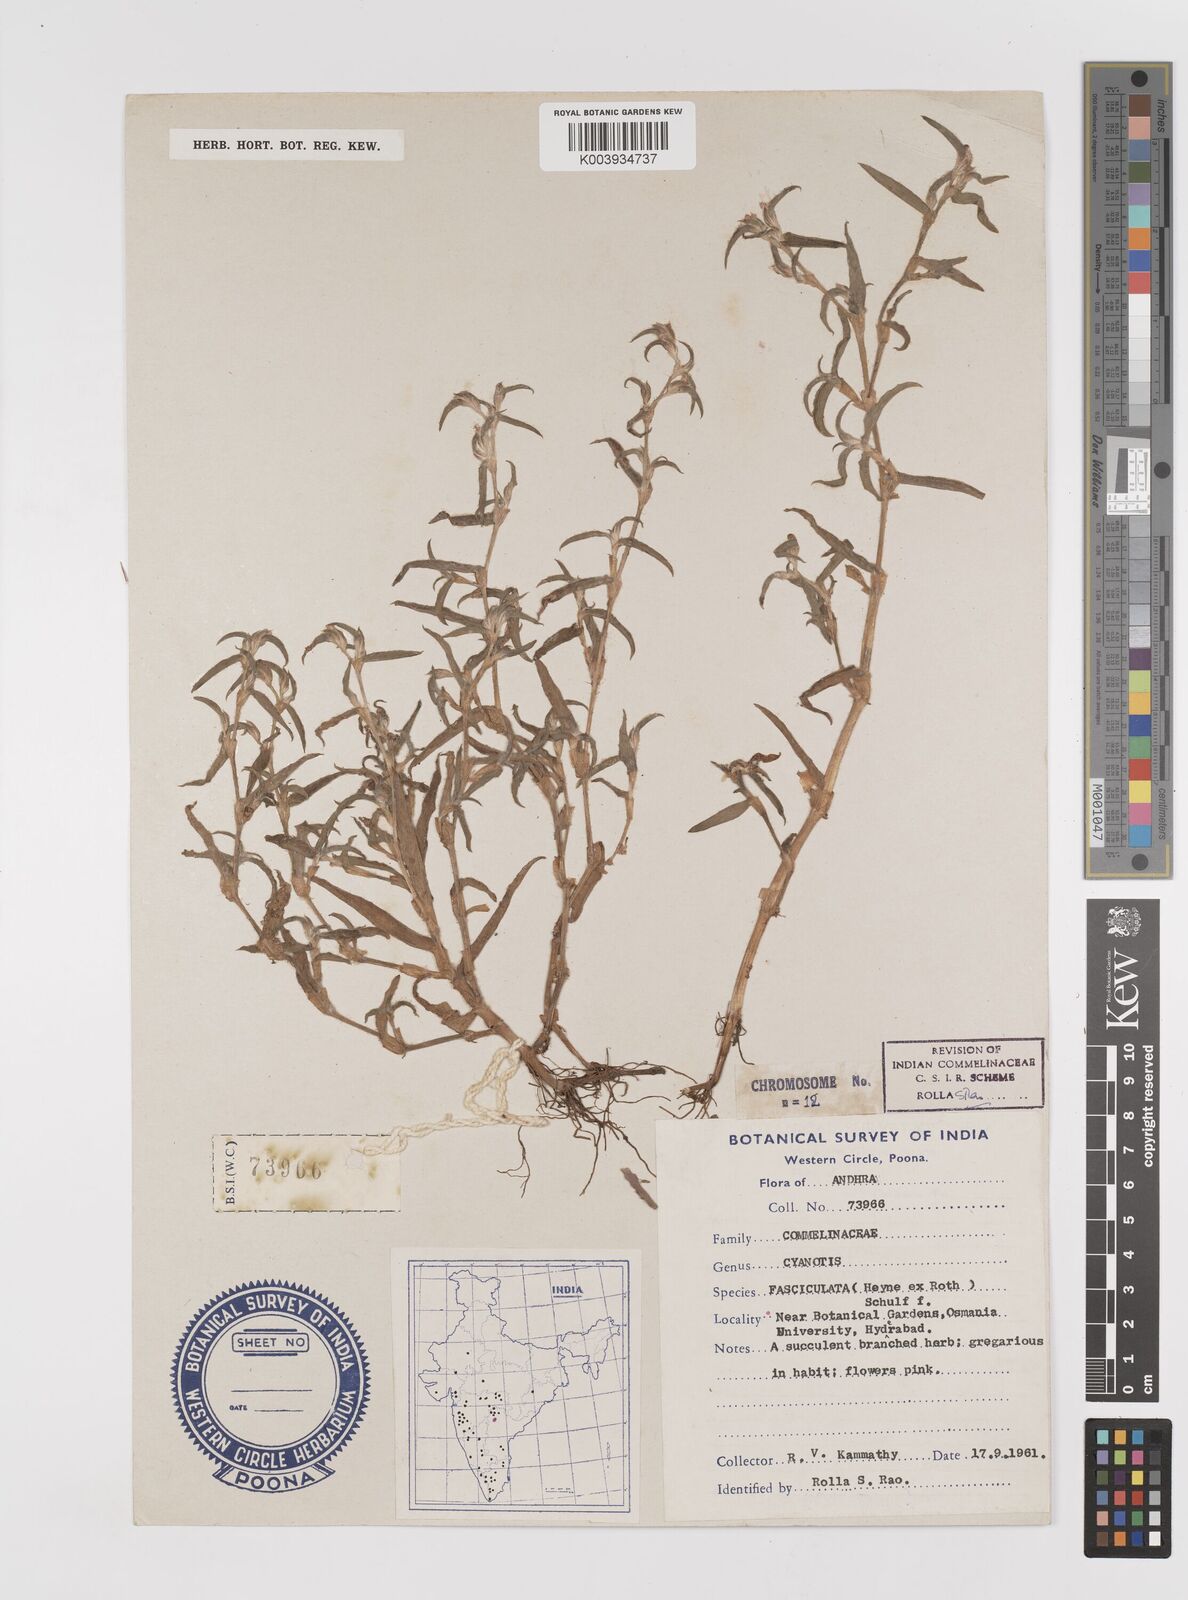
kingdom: Plantae
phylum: Tracheophyta
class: Liliopsida
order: Commelinales
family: Commelinaceae
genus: Cyanotis
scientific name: Cyanotis fasciculata
